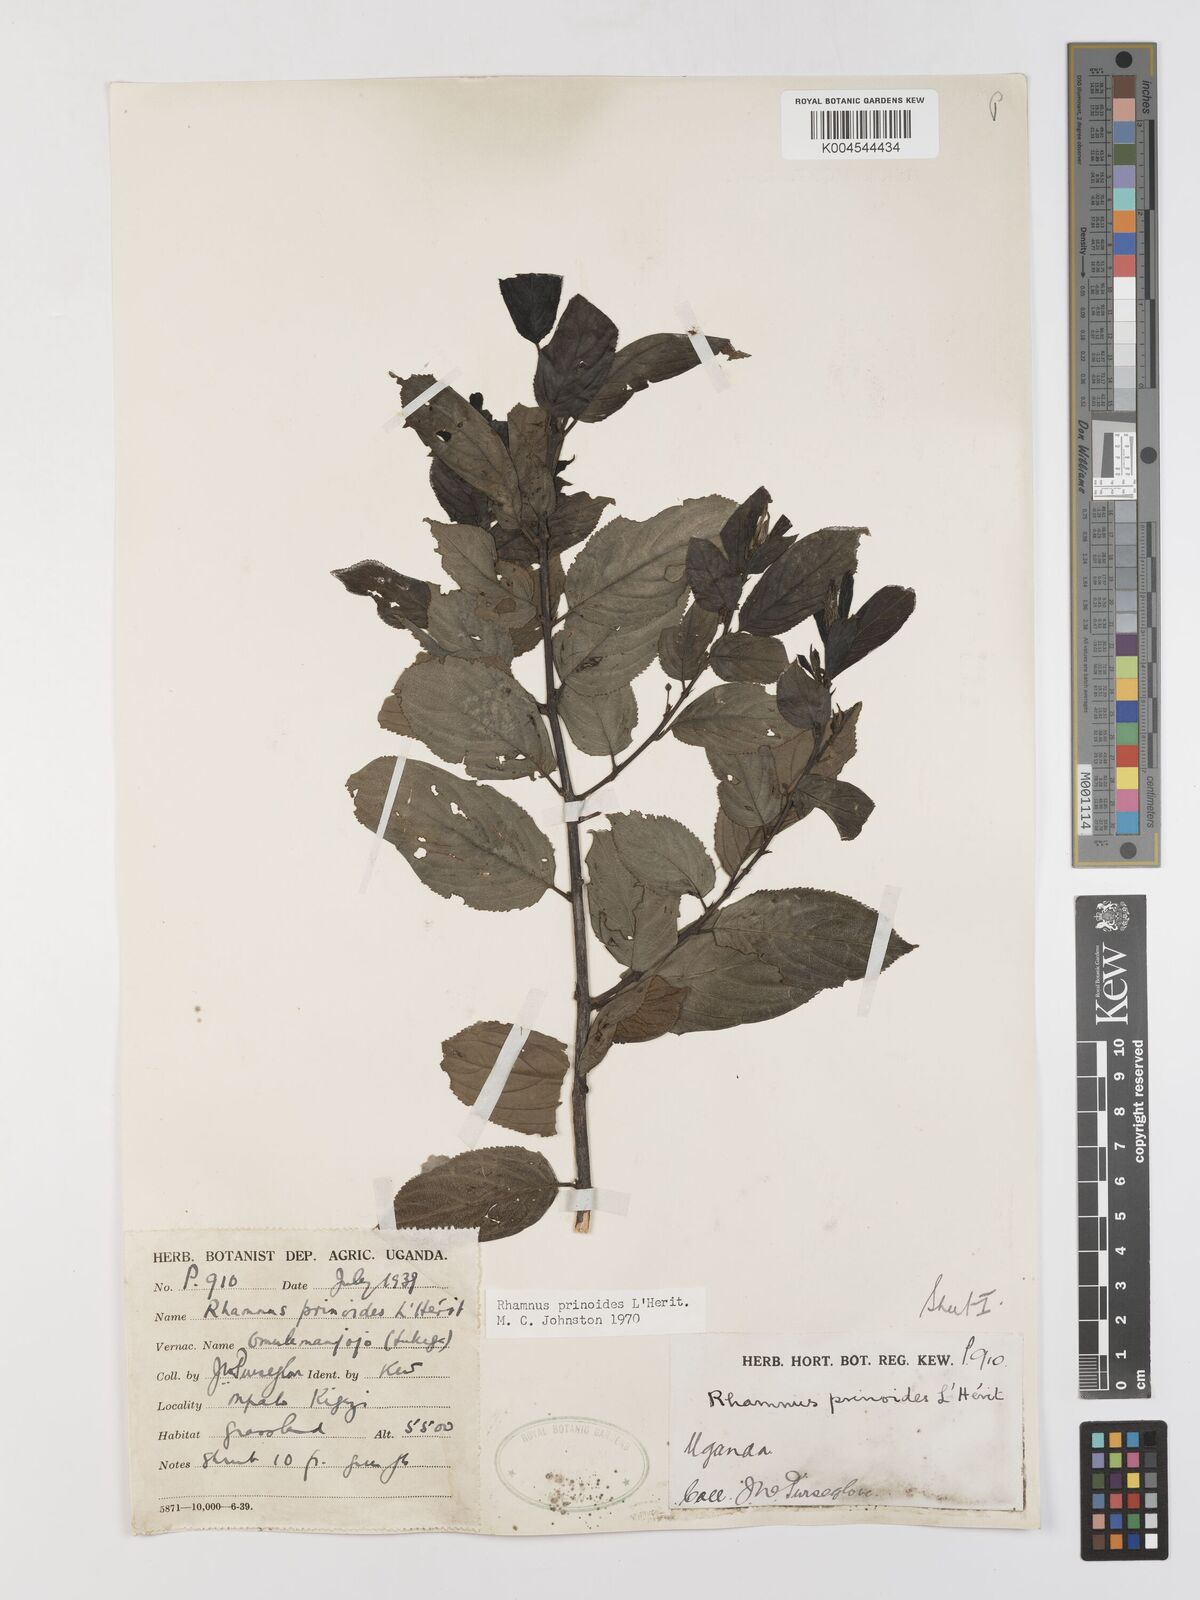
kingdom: Plantae
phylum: Tracheophyta
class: Magnoliopsida
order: Rosales
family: Rhamnaceae
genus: Rhamnus
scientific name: Rhamnus prinoides
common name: Dogwood
